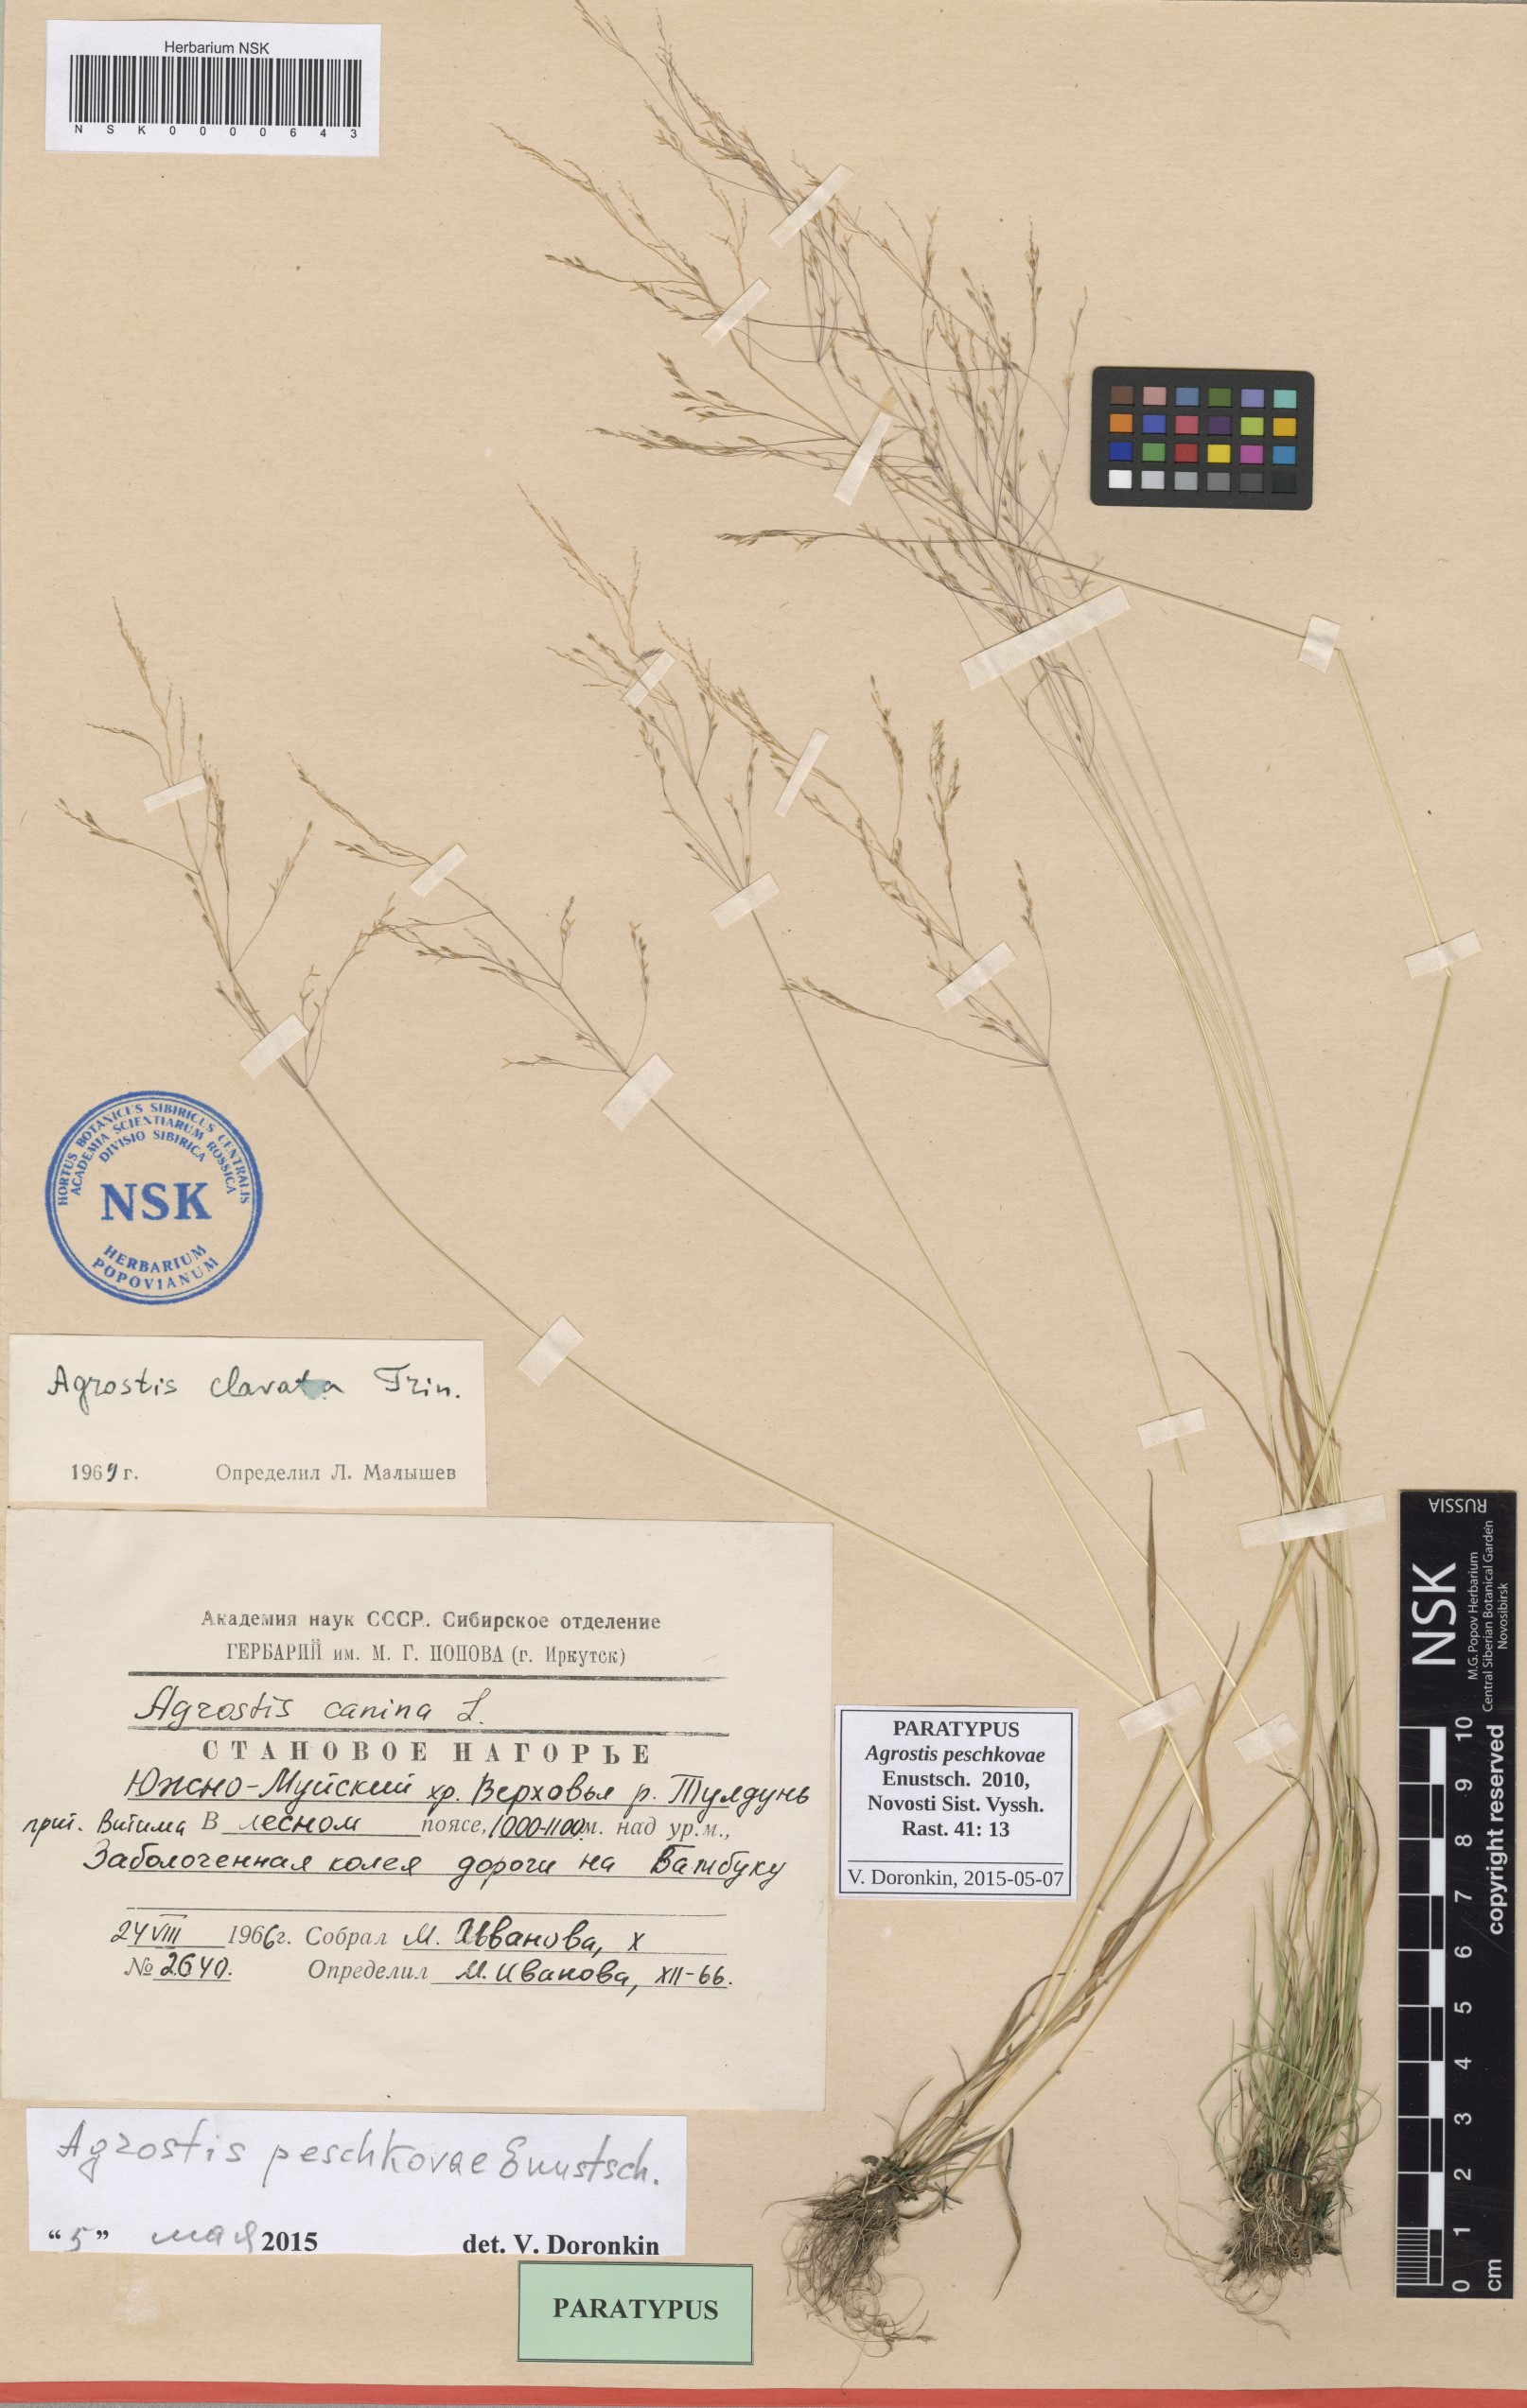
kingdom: Plantae
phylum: Tracheophyta
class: Liliopsida
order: Poales
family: Poaceae
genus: Agrostis
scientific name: Agrostis peschkovae
